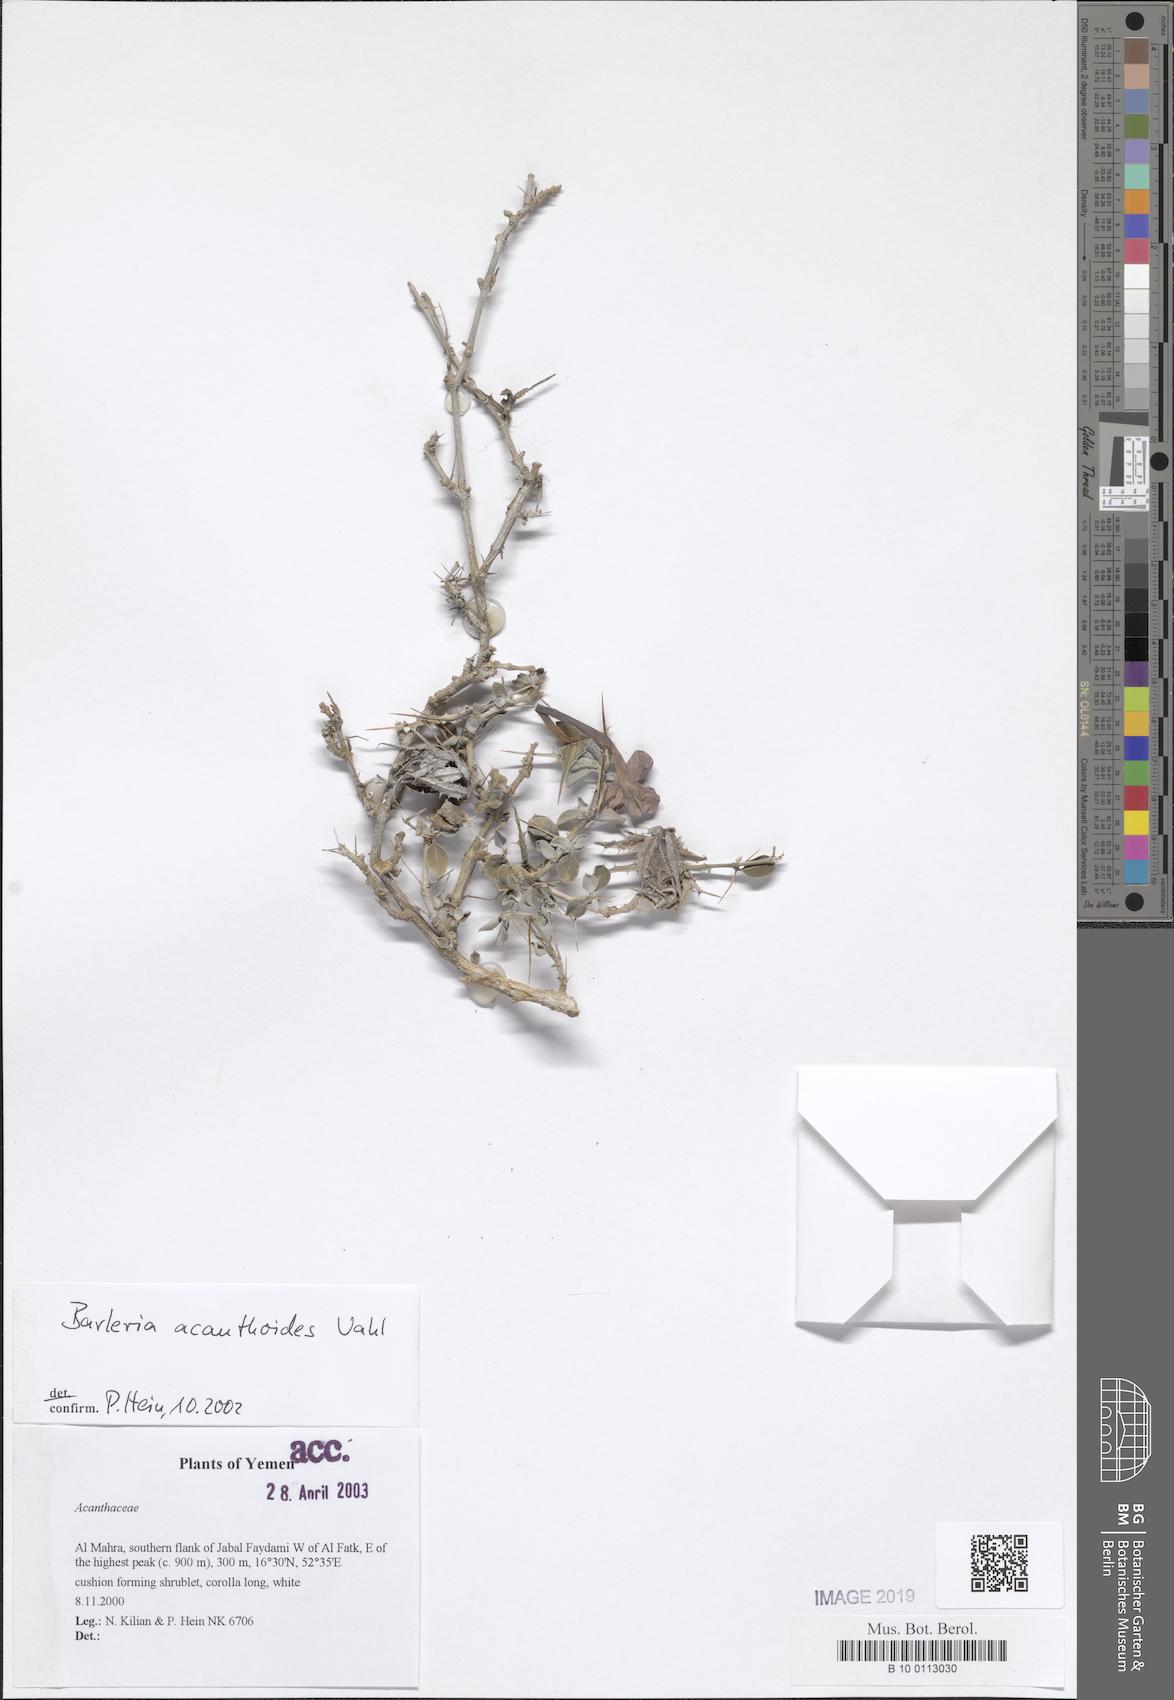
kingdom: Plantae
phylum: Tracheophyta
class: Magnoliopsida
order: Lamiales
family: Acanthaceae
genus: Barleria
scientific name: Barleria acanthoides
